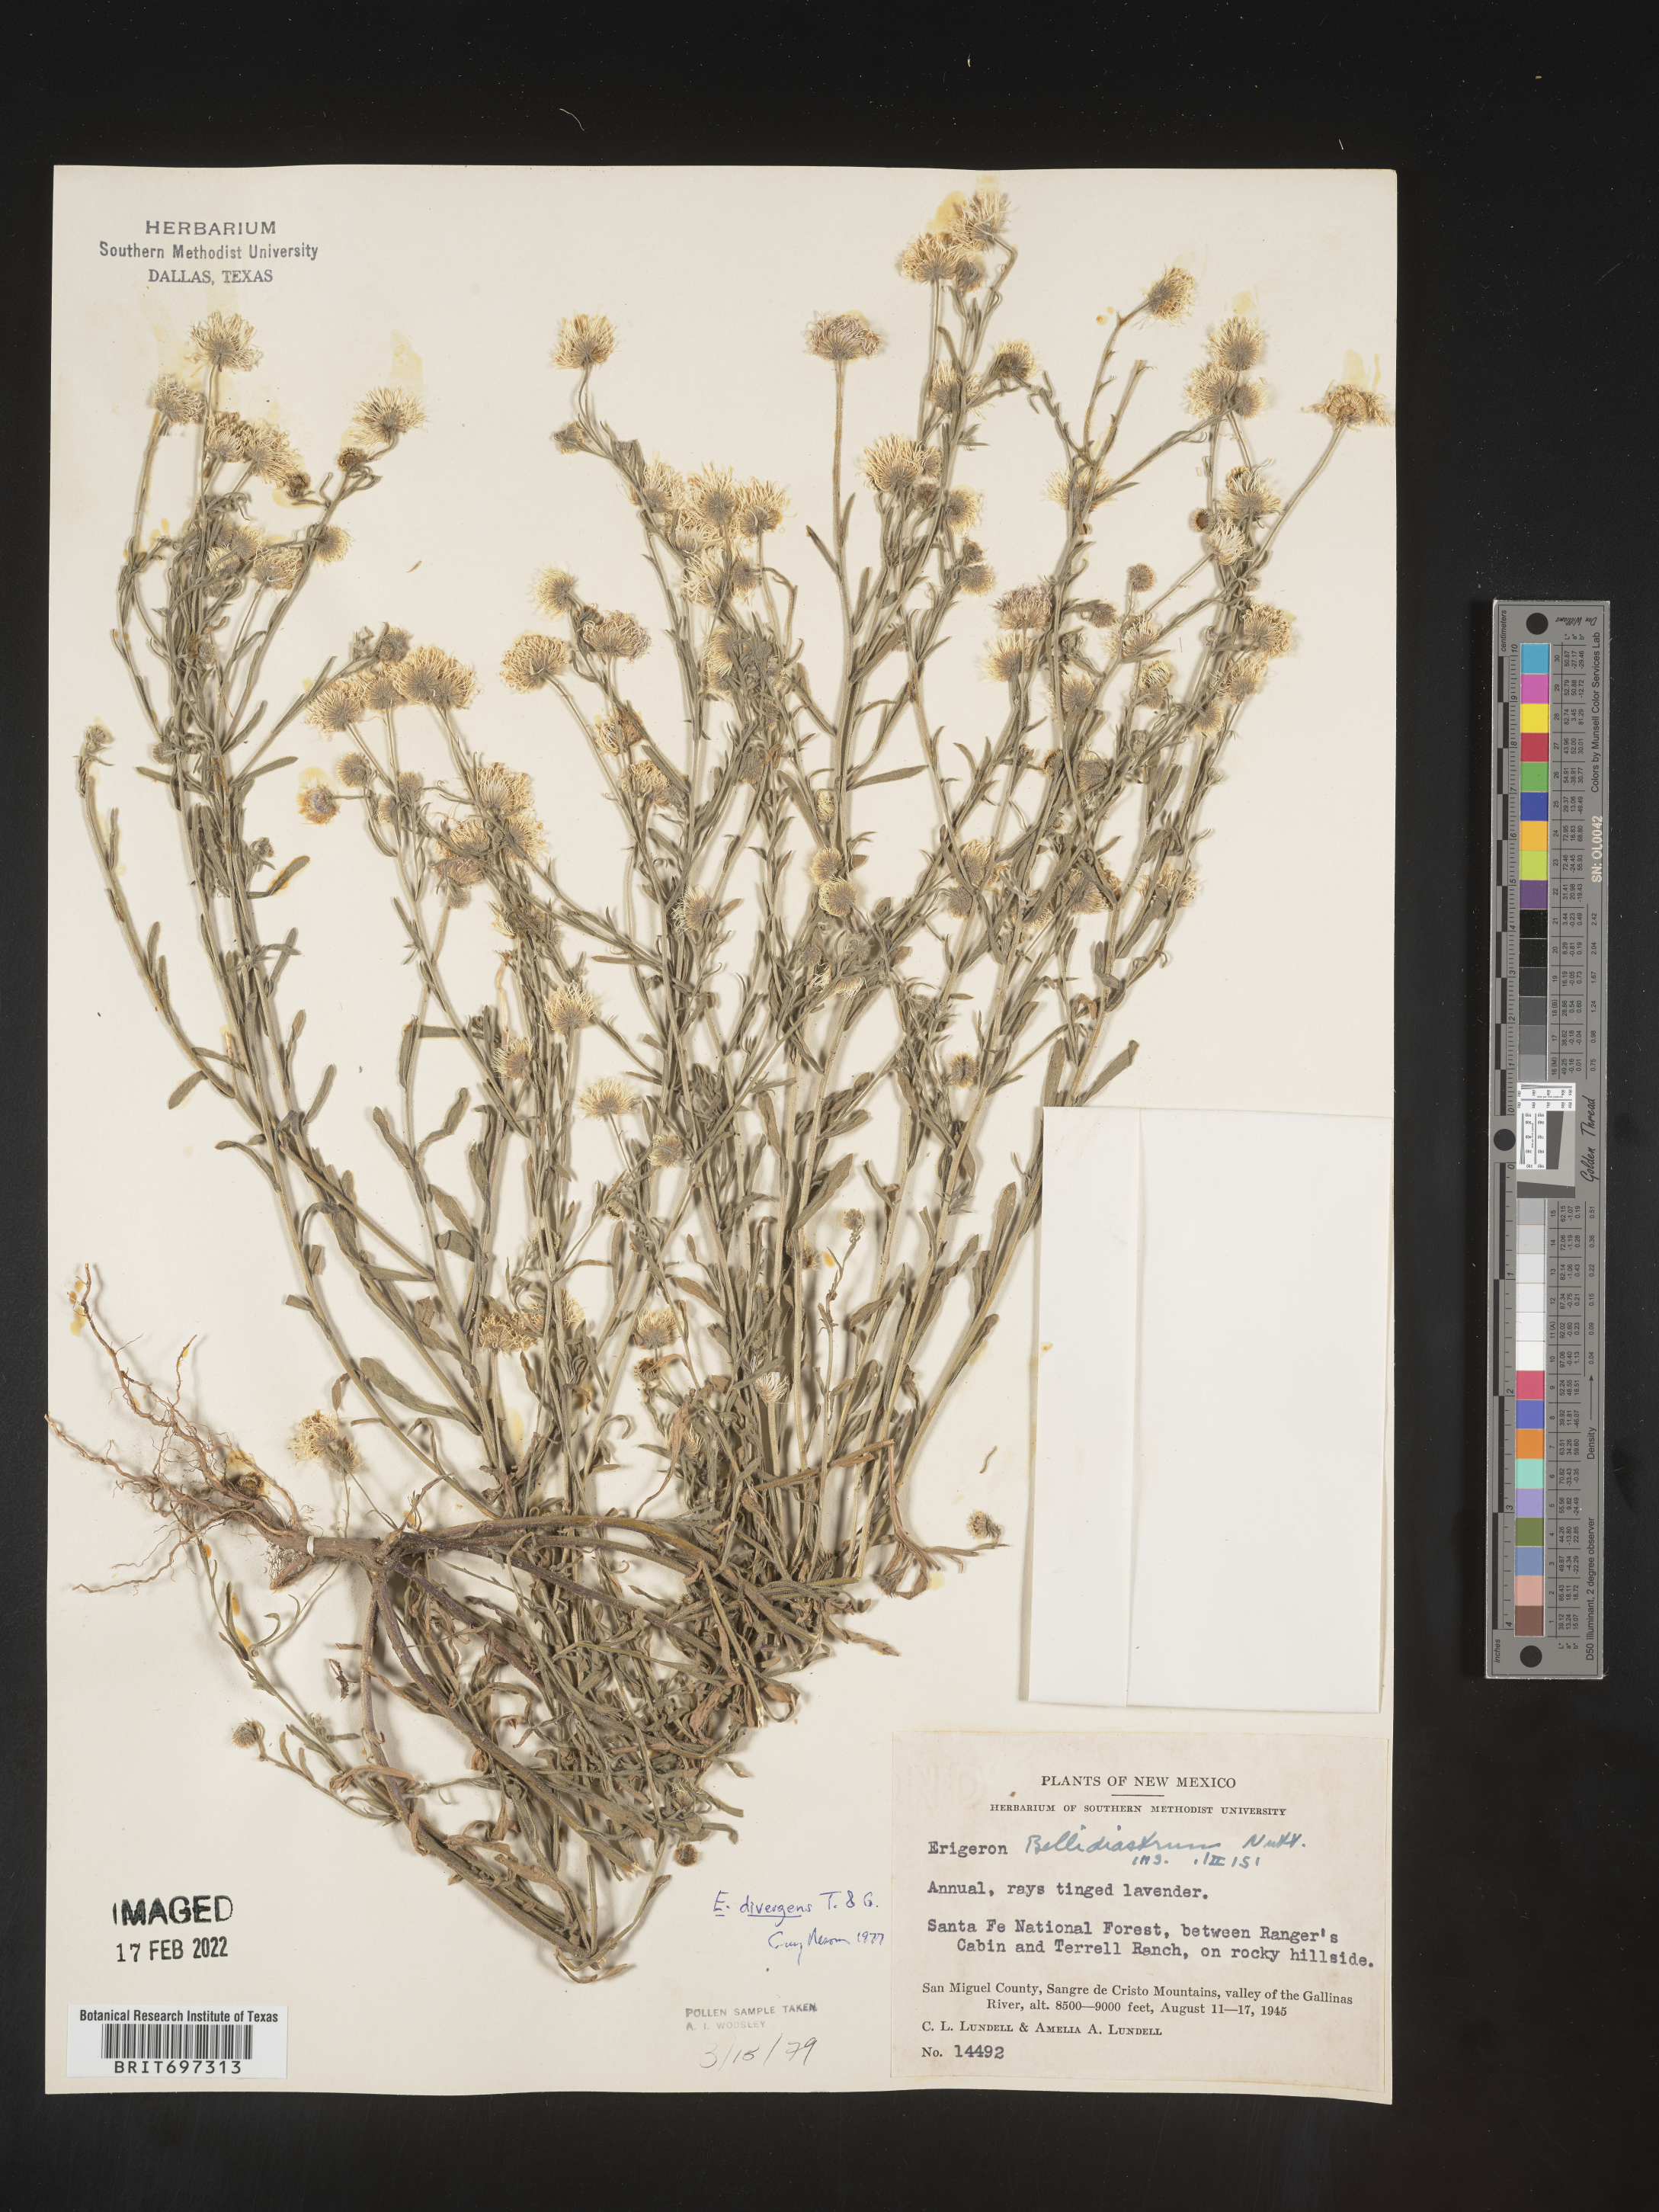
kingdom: Plantae
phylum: Tracheophyta
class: Magnoliopsida
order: Asterales
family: Asteraceae
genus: Erigeron
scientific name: Erigeron divergens
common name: Diffuse fleabane
